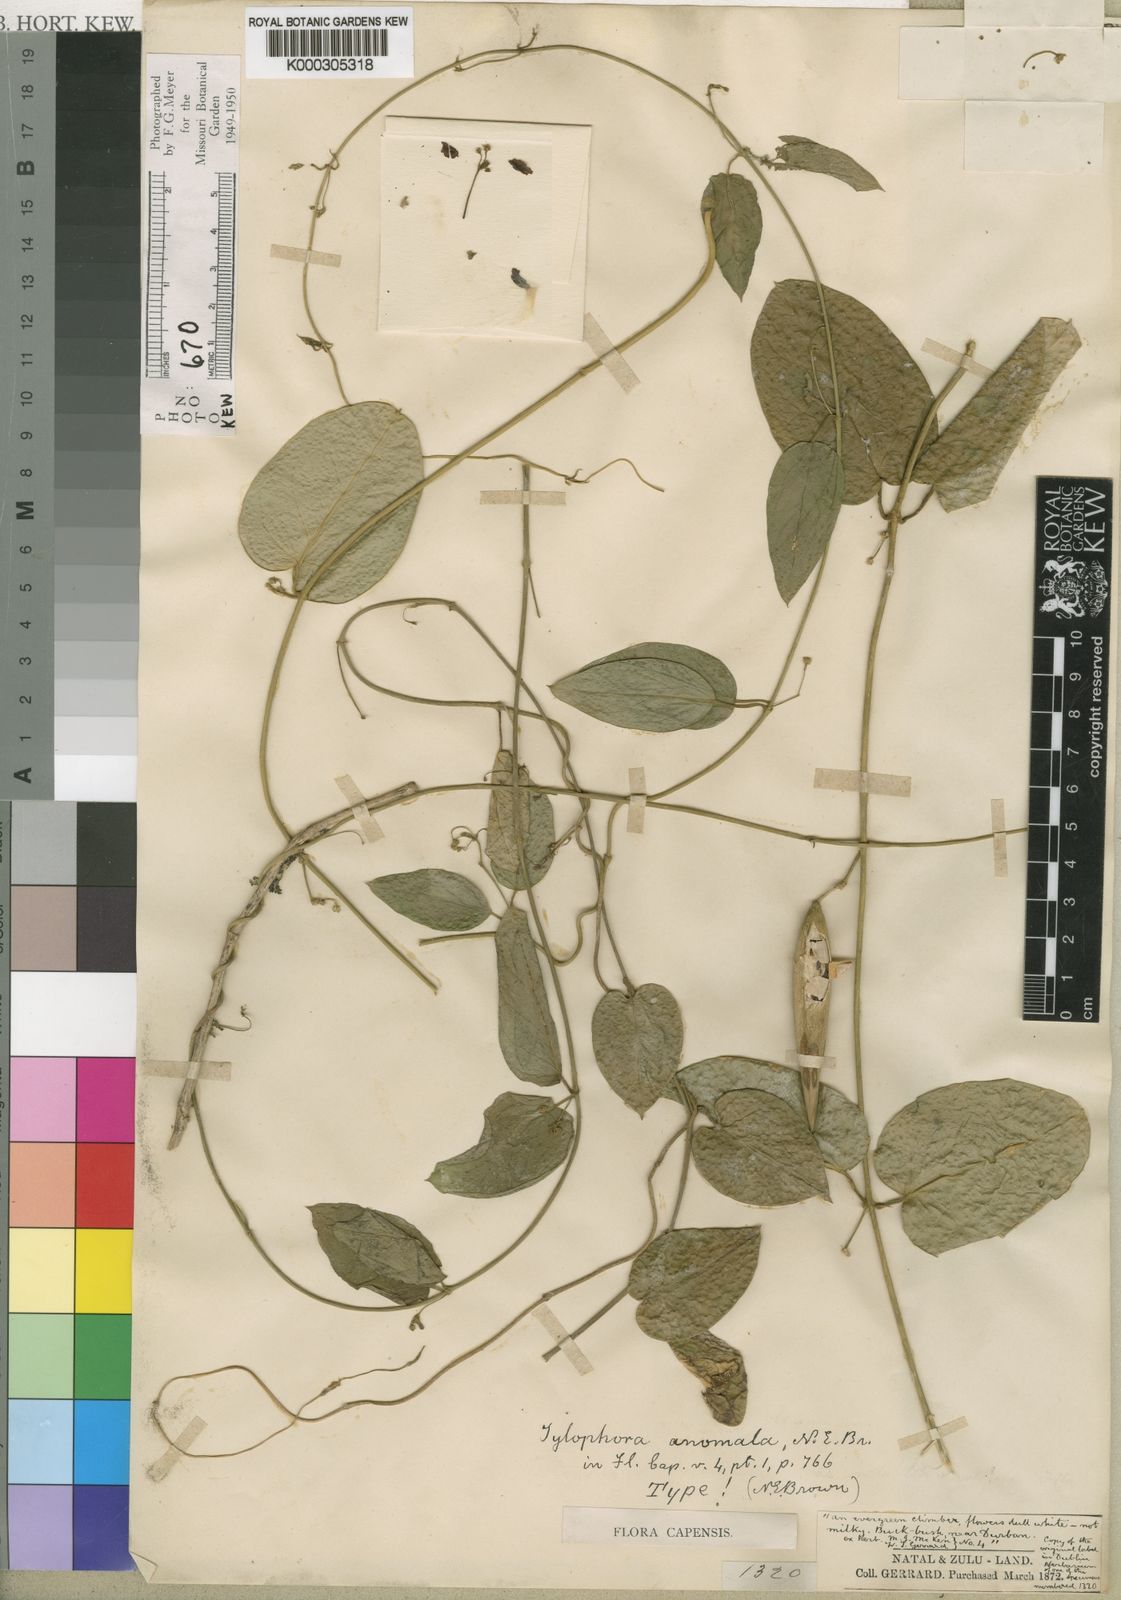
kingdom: Plantae
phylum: Tracheophyta
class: Magnoliopsida
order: Gentianales
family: Apocynaceae
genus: Vincetoxicum
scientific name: Vincetoxicum anomalum
